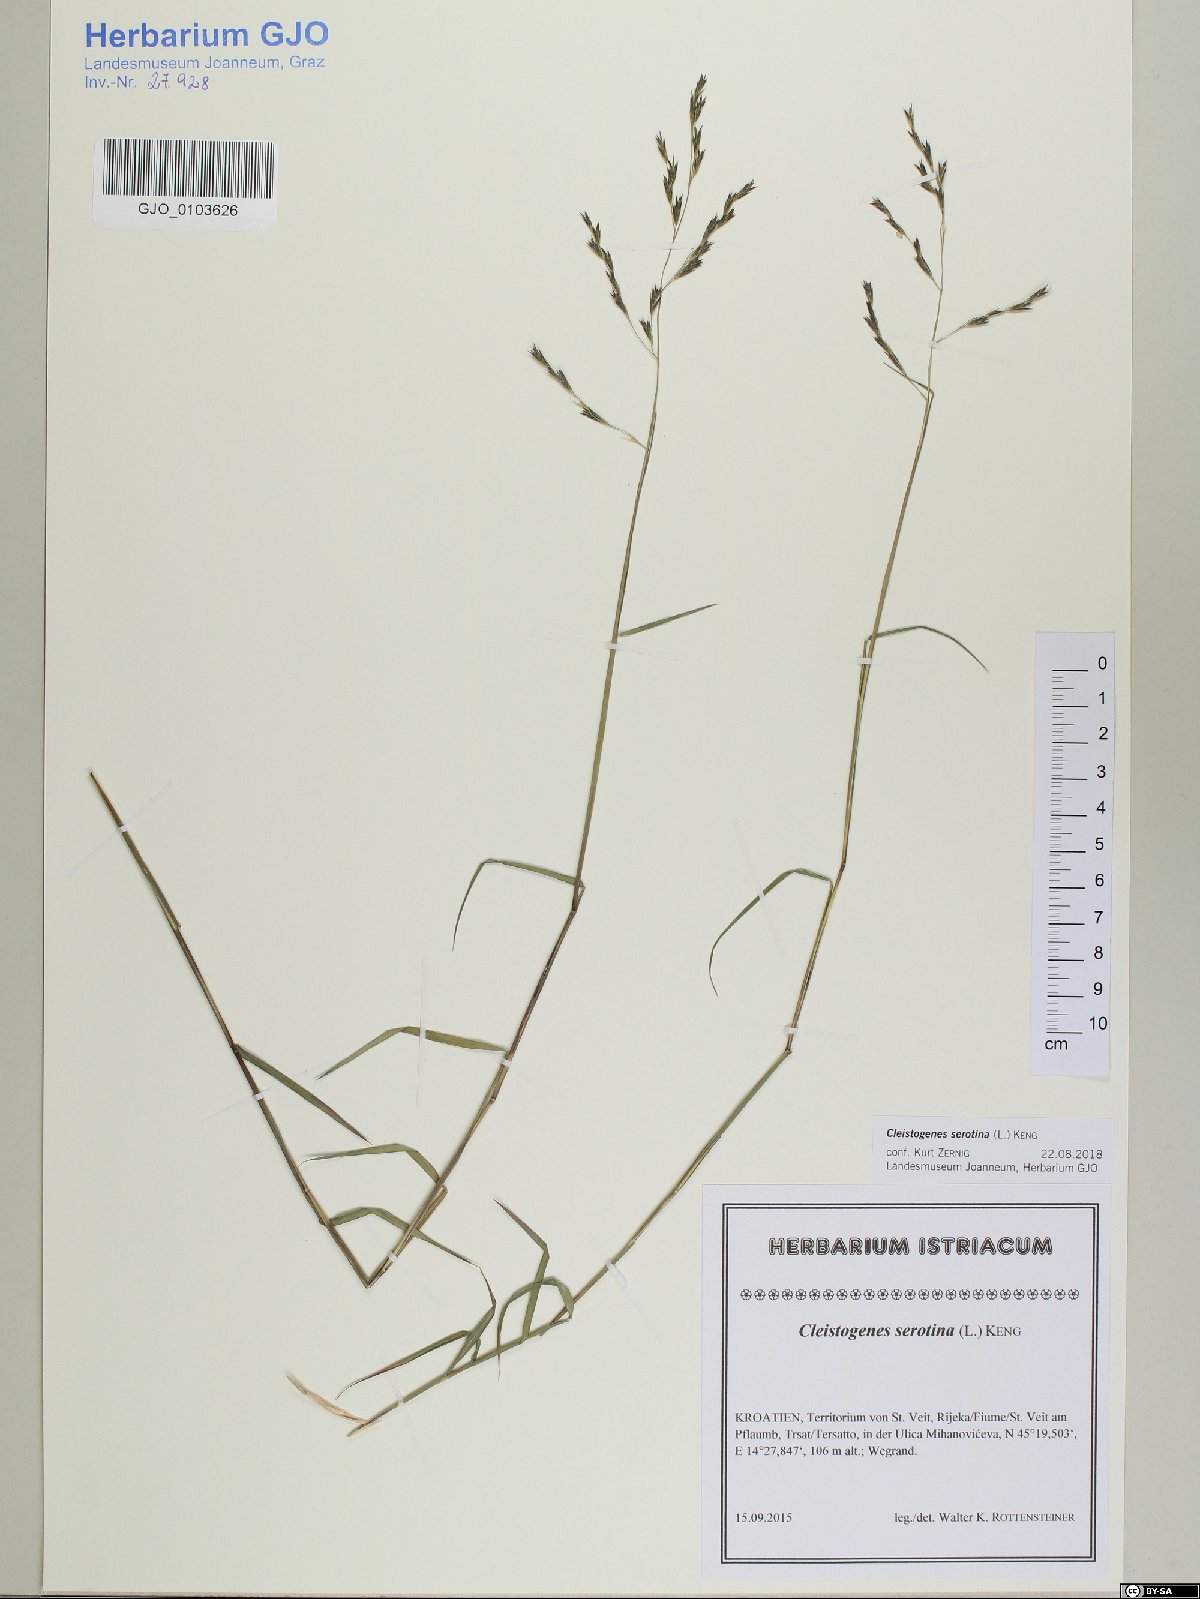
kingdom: Plantae
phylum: Tracheophyta
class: Liliopsida
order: Poales
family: Poaceae
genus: Cleistogenes
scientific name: Cleistogenes serotina
